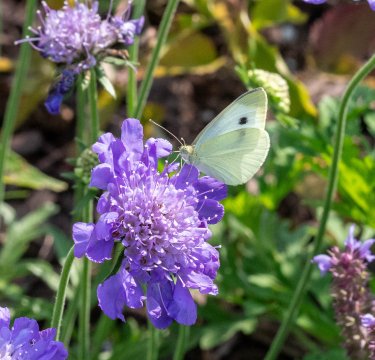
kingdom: Animalia
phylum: Arthropoda
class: Insecta
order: Lepidoptera
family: Pieridae
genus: Pieris
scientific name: Pieris rapae
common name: Cabbage White
